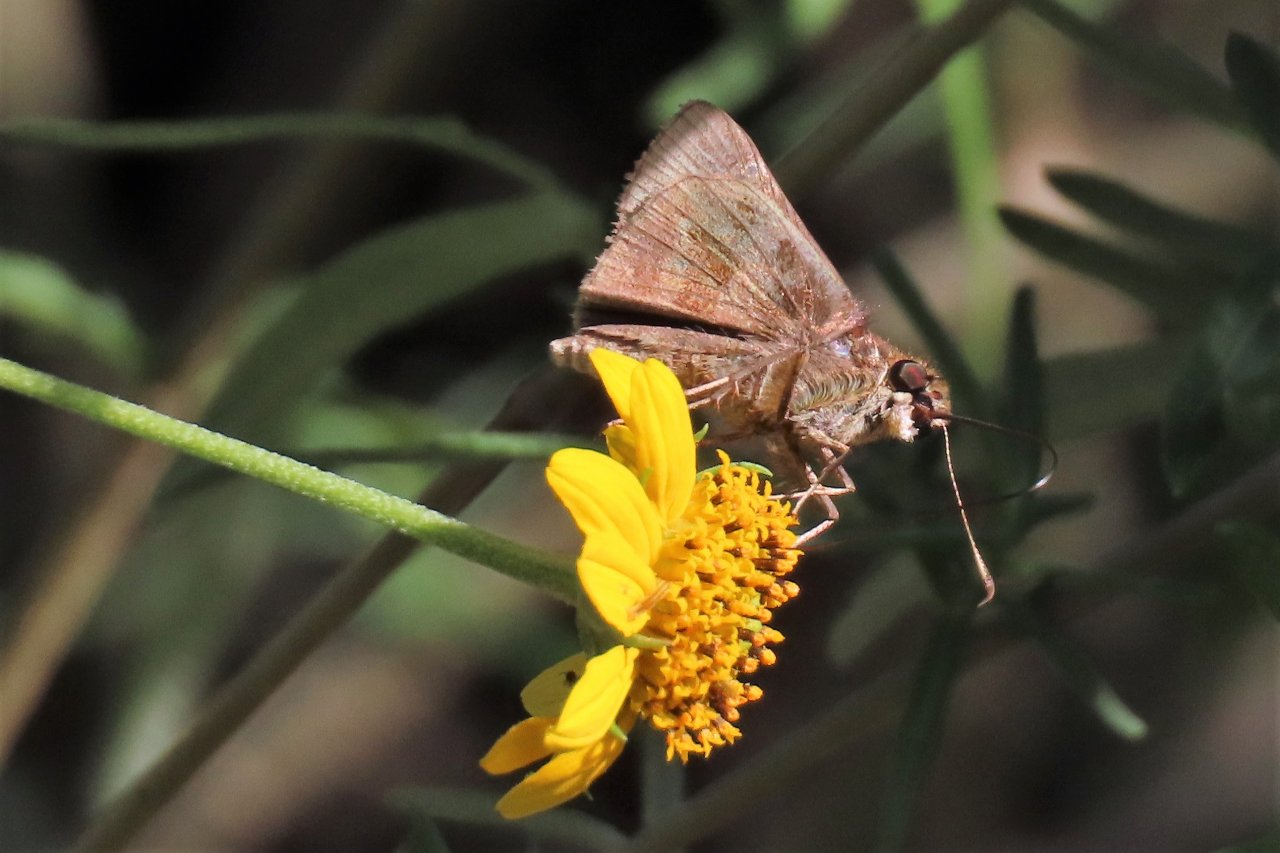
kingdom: Animalia
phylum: Arthropoda
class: Insecta
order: Lepidoptera
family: Hesperiidae
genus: Cymaenes
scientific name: Cymaenes odilia
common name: Fawn-spotted Skipper
